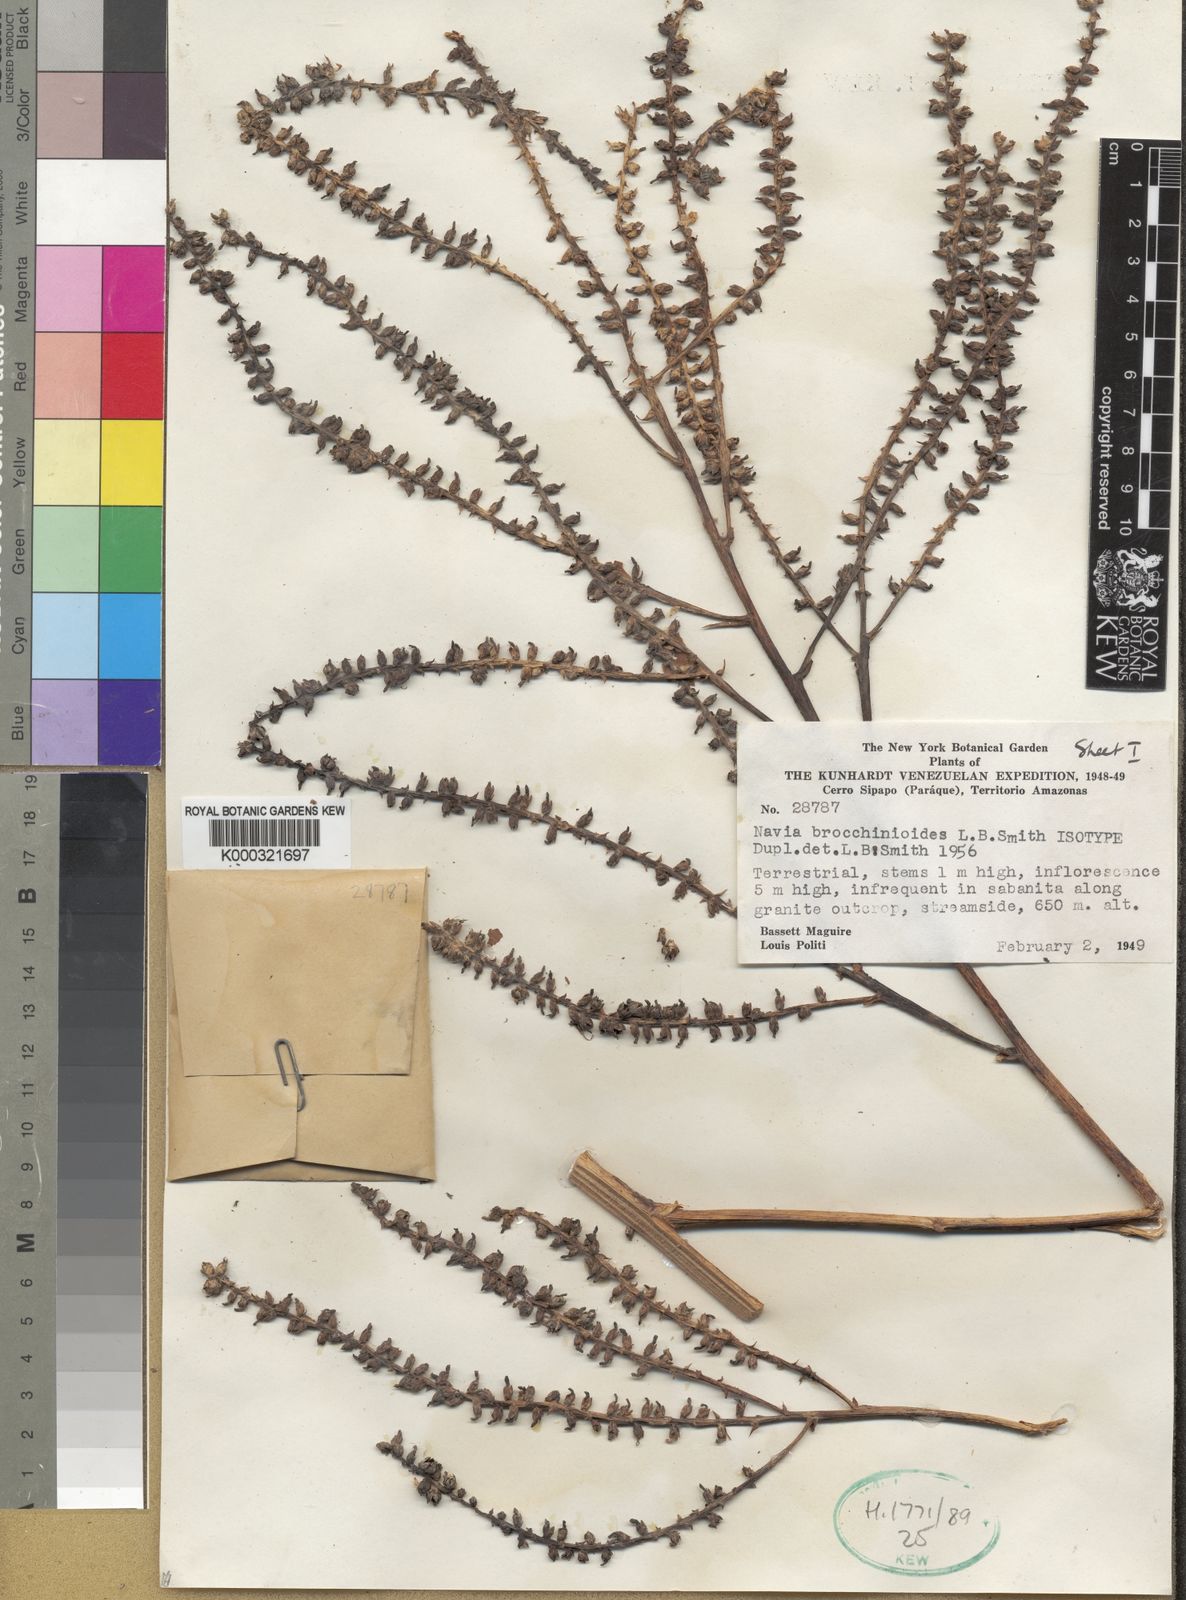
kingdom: Plantae
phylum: Tracheophyta
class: Liliopsida
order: Poales
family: Bromeliaceae
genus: Navia
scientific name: Navia brocchinioides
